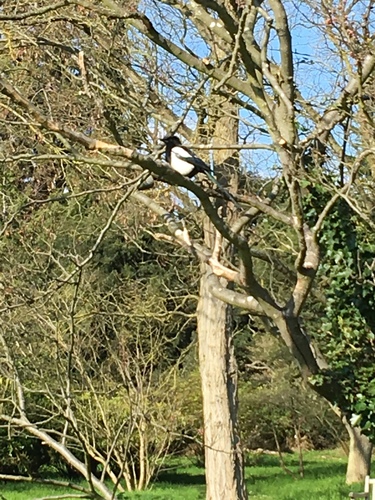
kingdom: Animalia
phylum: Chordata
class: Aves
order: Passeriformes
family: Corvidae
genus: Pica
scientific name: Pica pica
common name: Eurasian magpie
